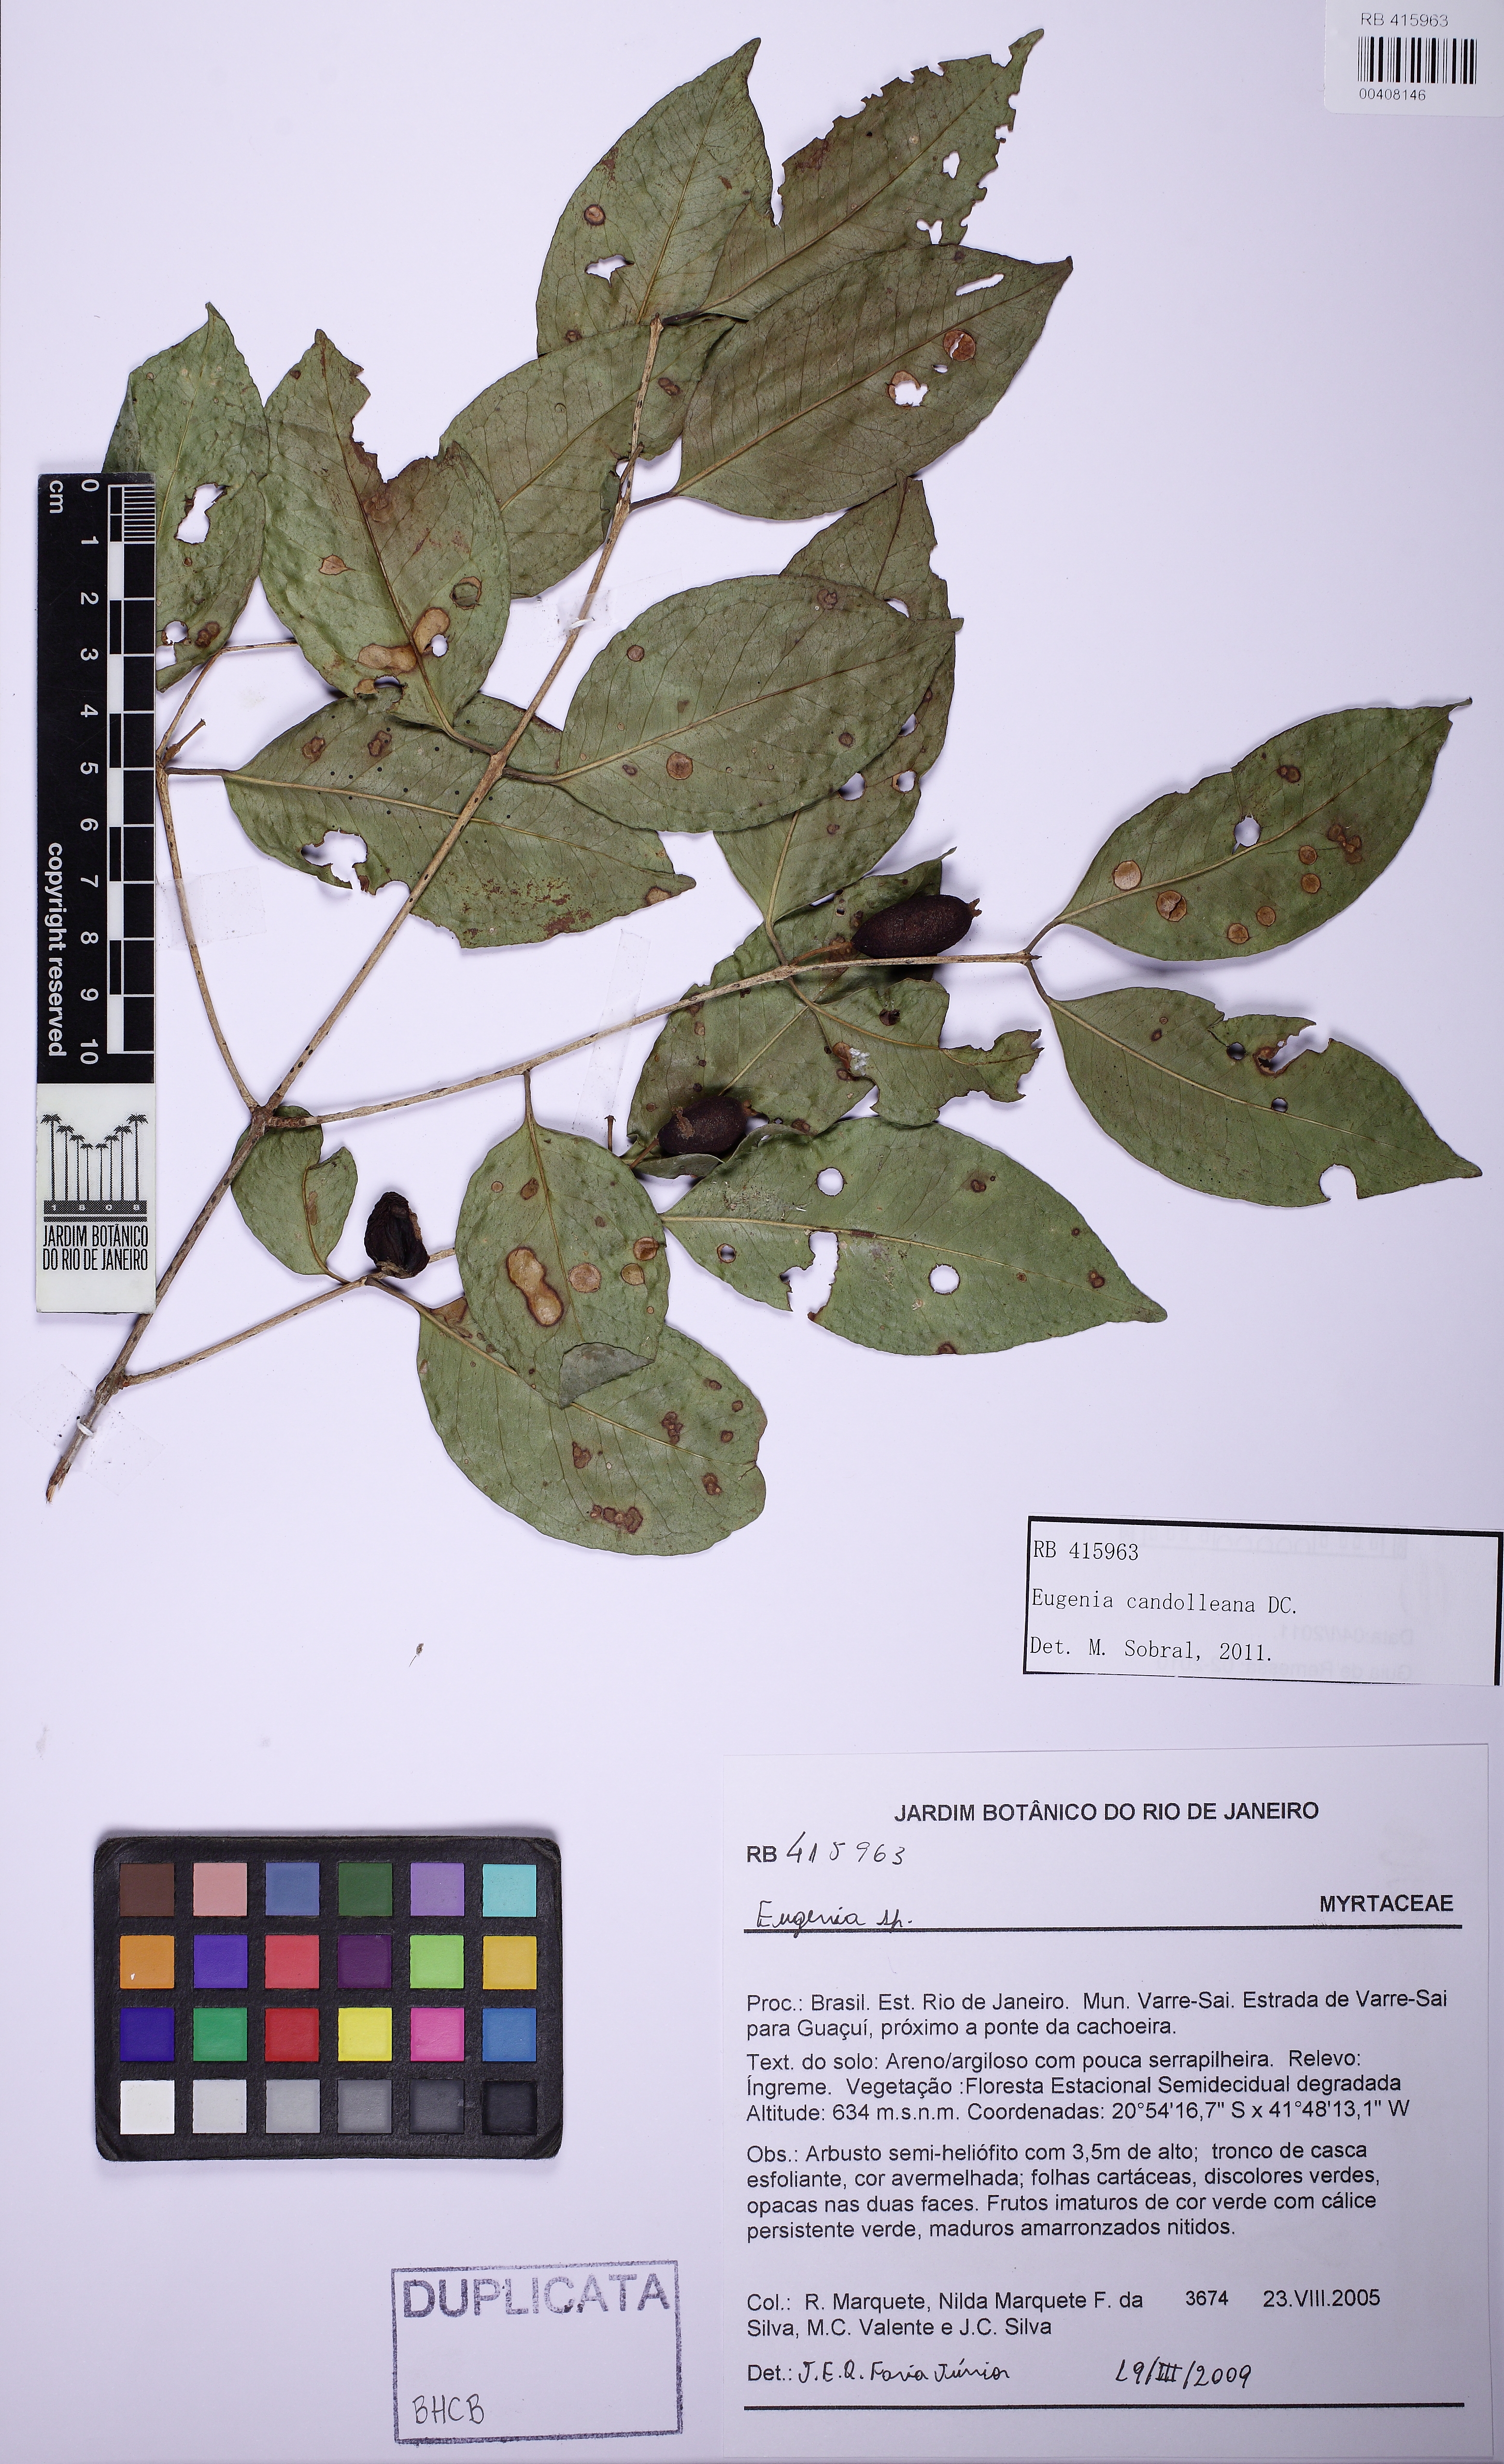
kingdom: Plantae
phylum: Tracheophyta
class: Magnoliopsida
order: Myrtales
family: Myrtaceae
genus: Eugenia
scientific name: Eugenia candolleana
